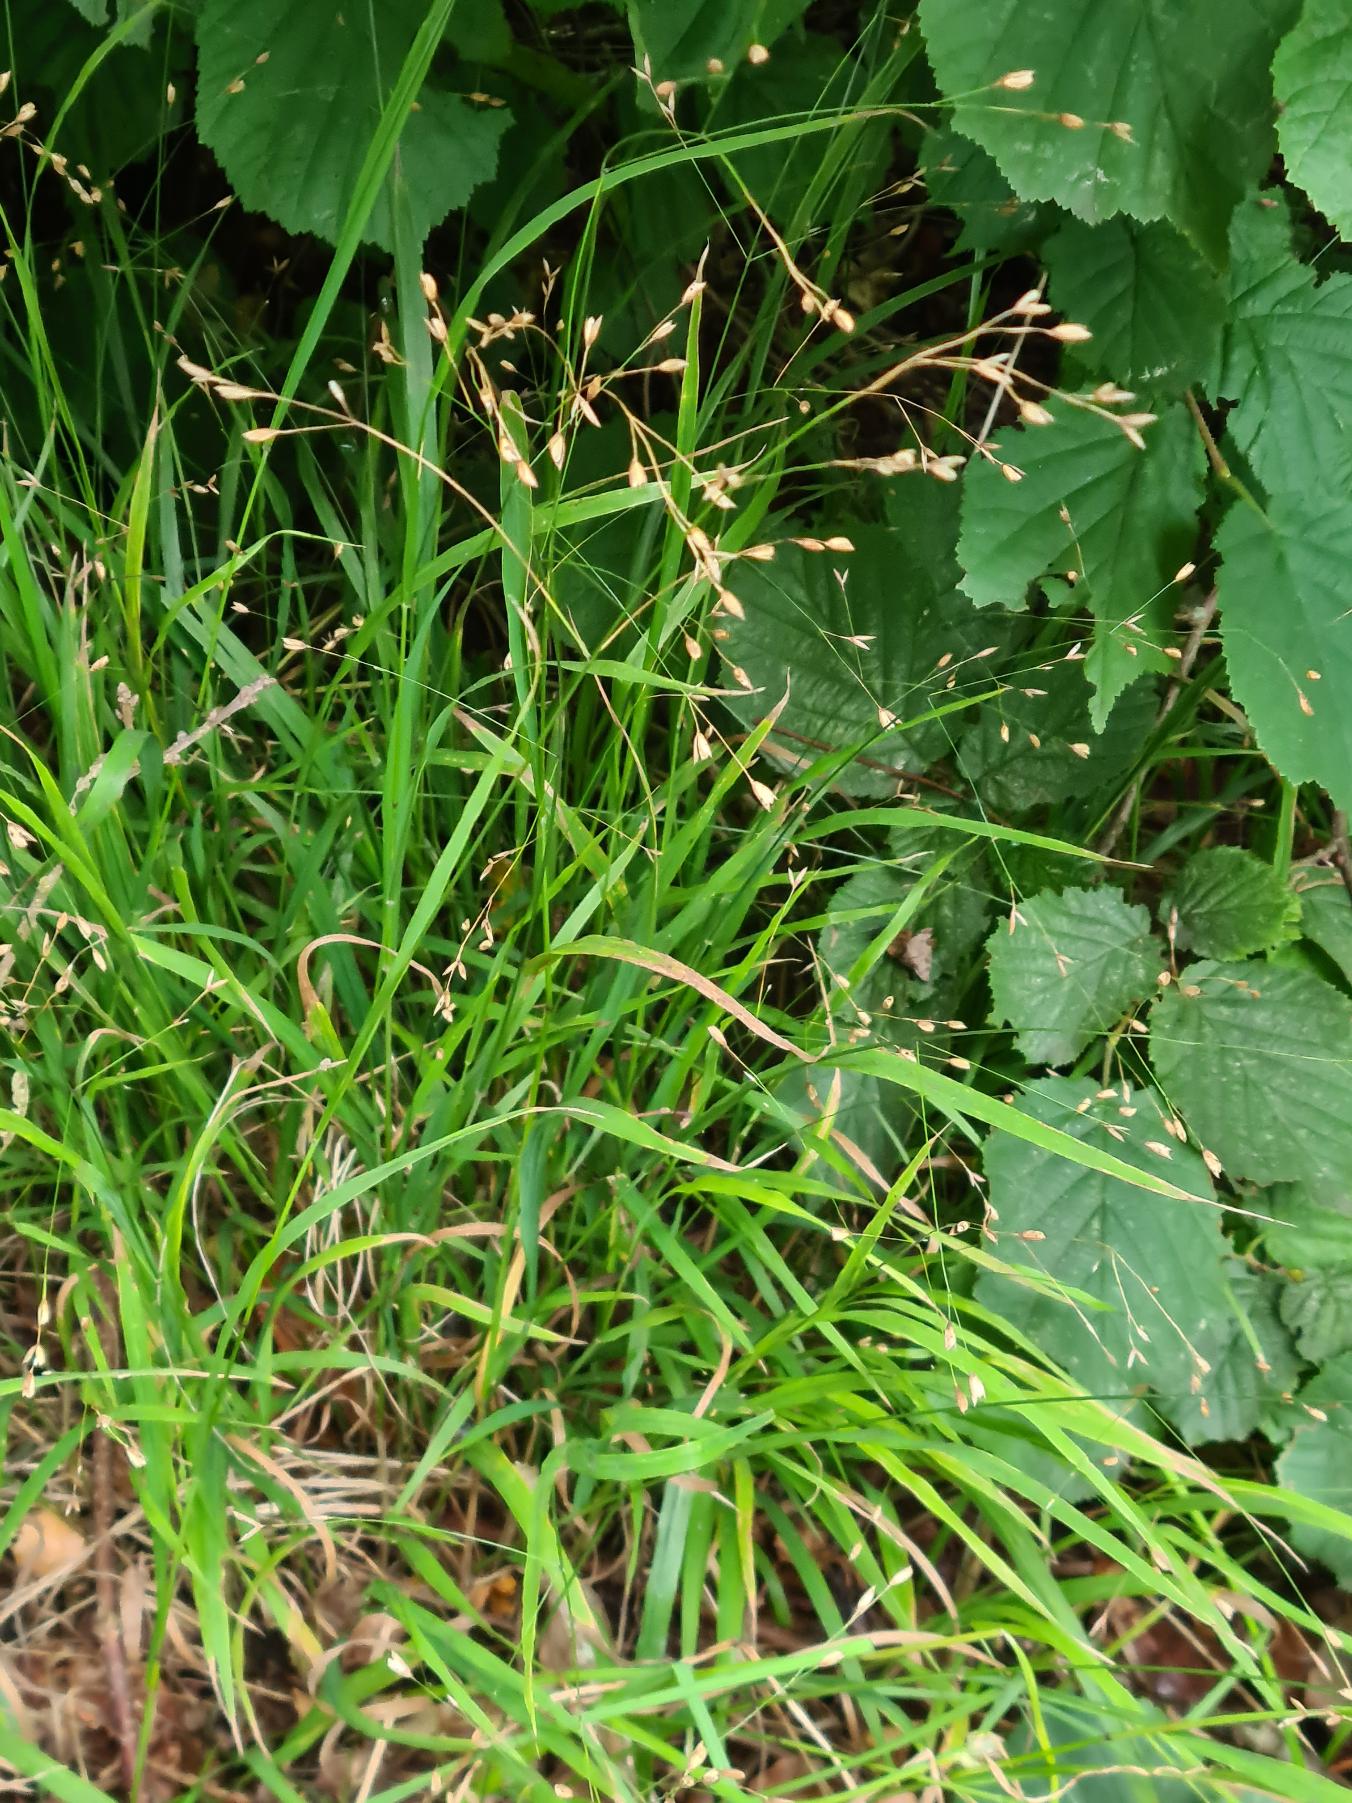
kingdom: Plantae
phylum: Tracheophyta
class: Liliopsida
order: Poales
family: Poaceae
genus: Melica
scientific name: Melica uniflora
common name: Enblomstret flitteraks
